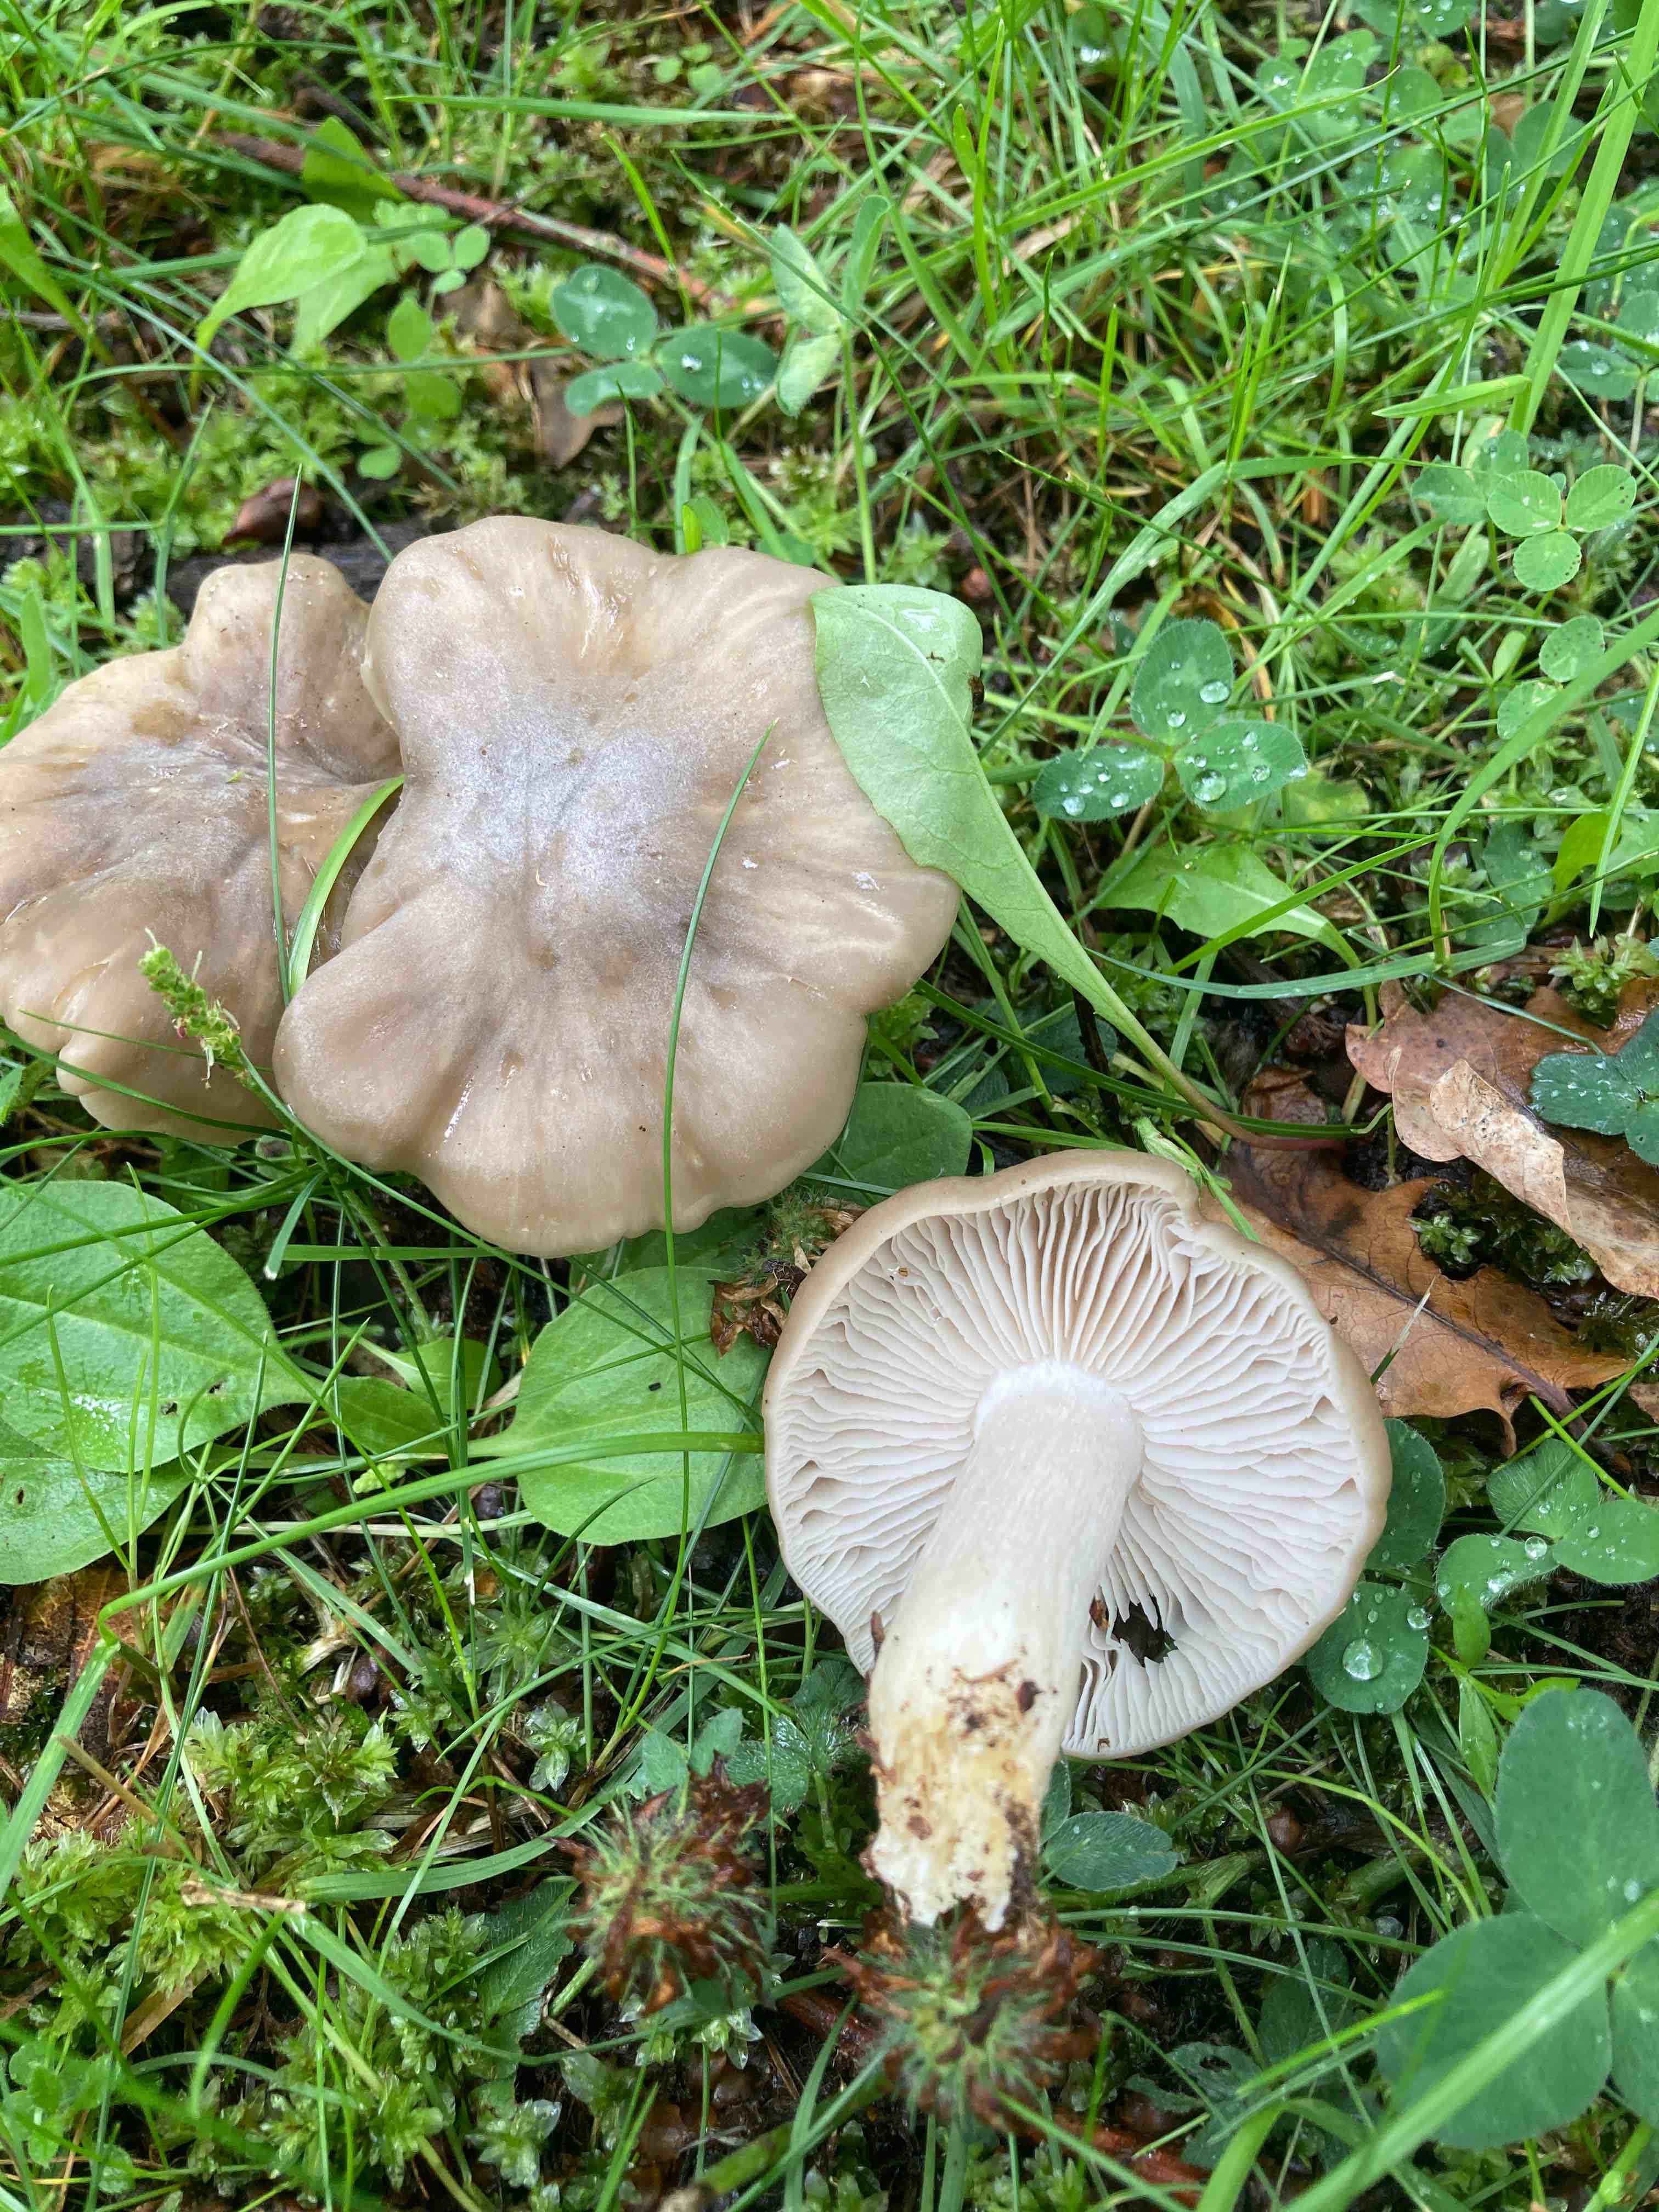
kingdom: Fungi
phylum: Basidiomycota
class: Agaricomycetes
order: Agaricales
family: Entolomataceae
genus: Entoloma
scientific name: Entoloma lividoalbum
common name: lysstokket rødblad
